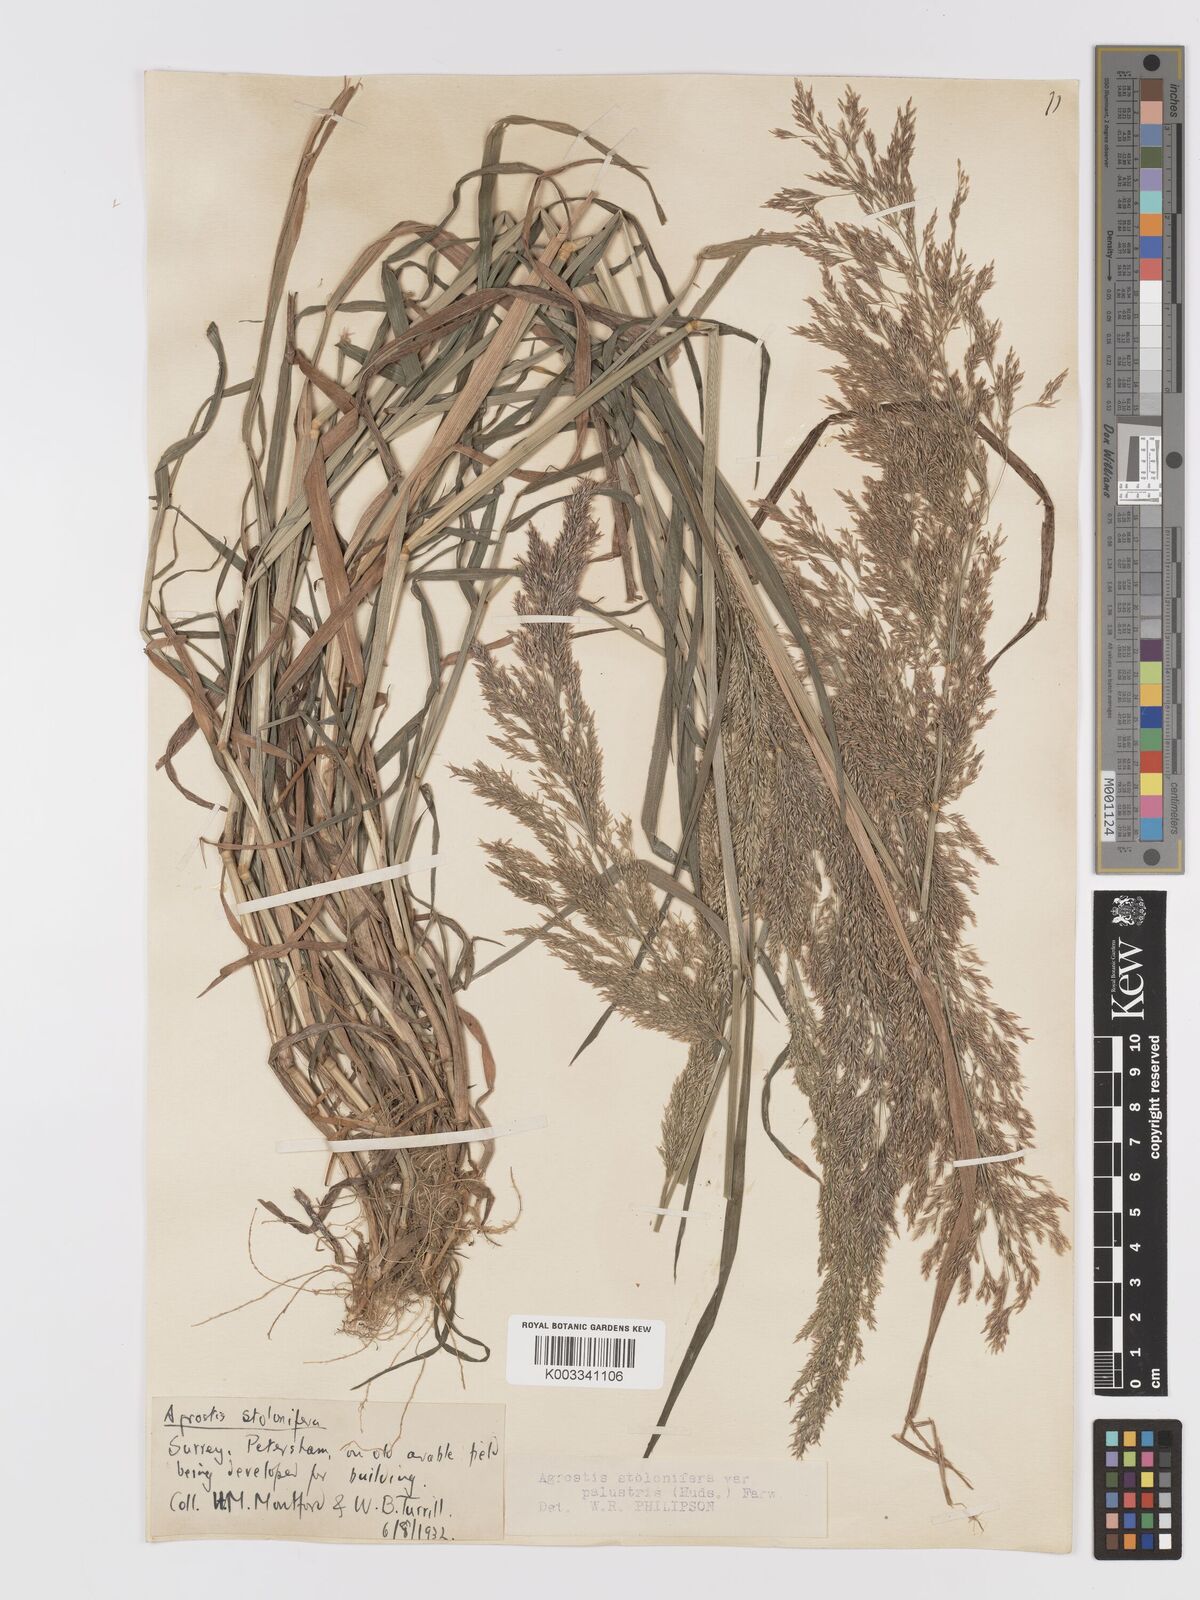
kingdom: Plantae
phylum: Tracheophyta
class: Liliopsida
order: Poales
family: Poaceae
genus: Agrostis
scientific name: Agrostis gigantea
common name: Black bent
